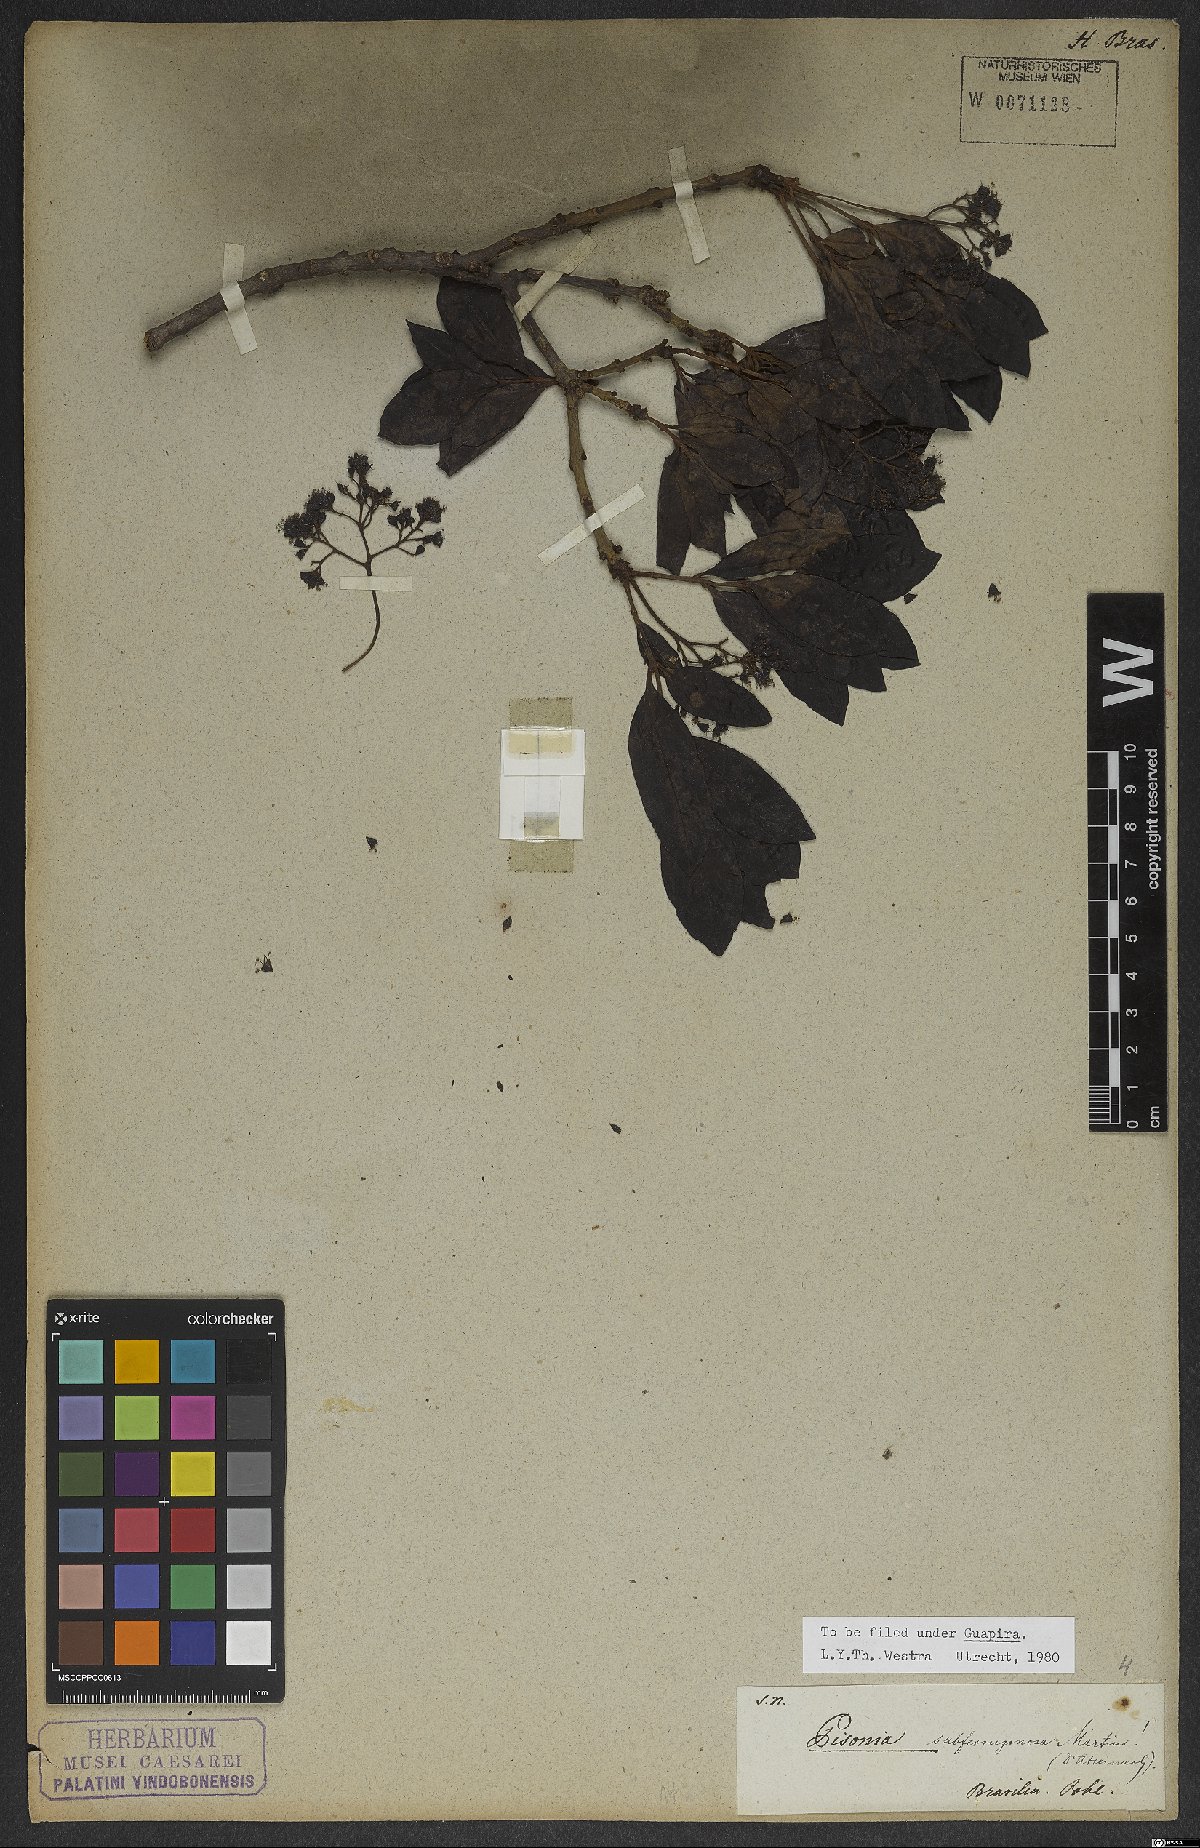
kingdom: Plantae
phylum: Tracheophyta
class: Magnoliopsida
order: Caryophyllales
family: Nyctaginaceae
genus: Guapira
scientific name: Guapira graciliflora
